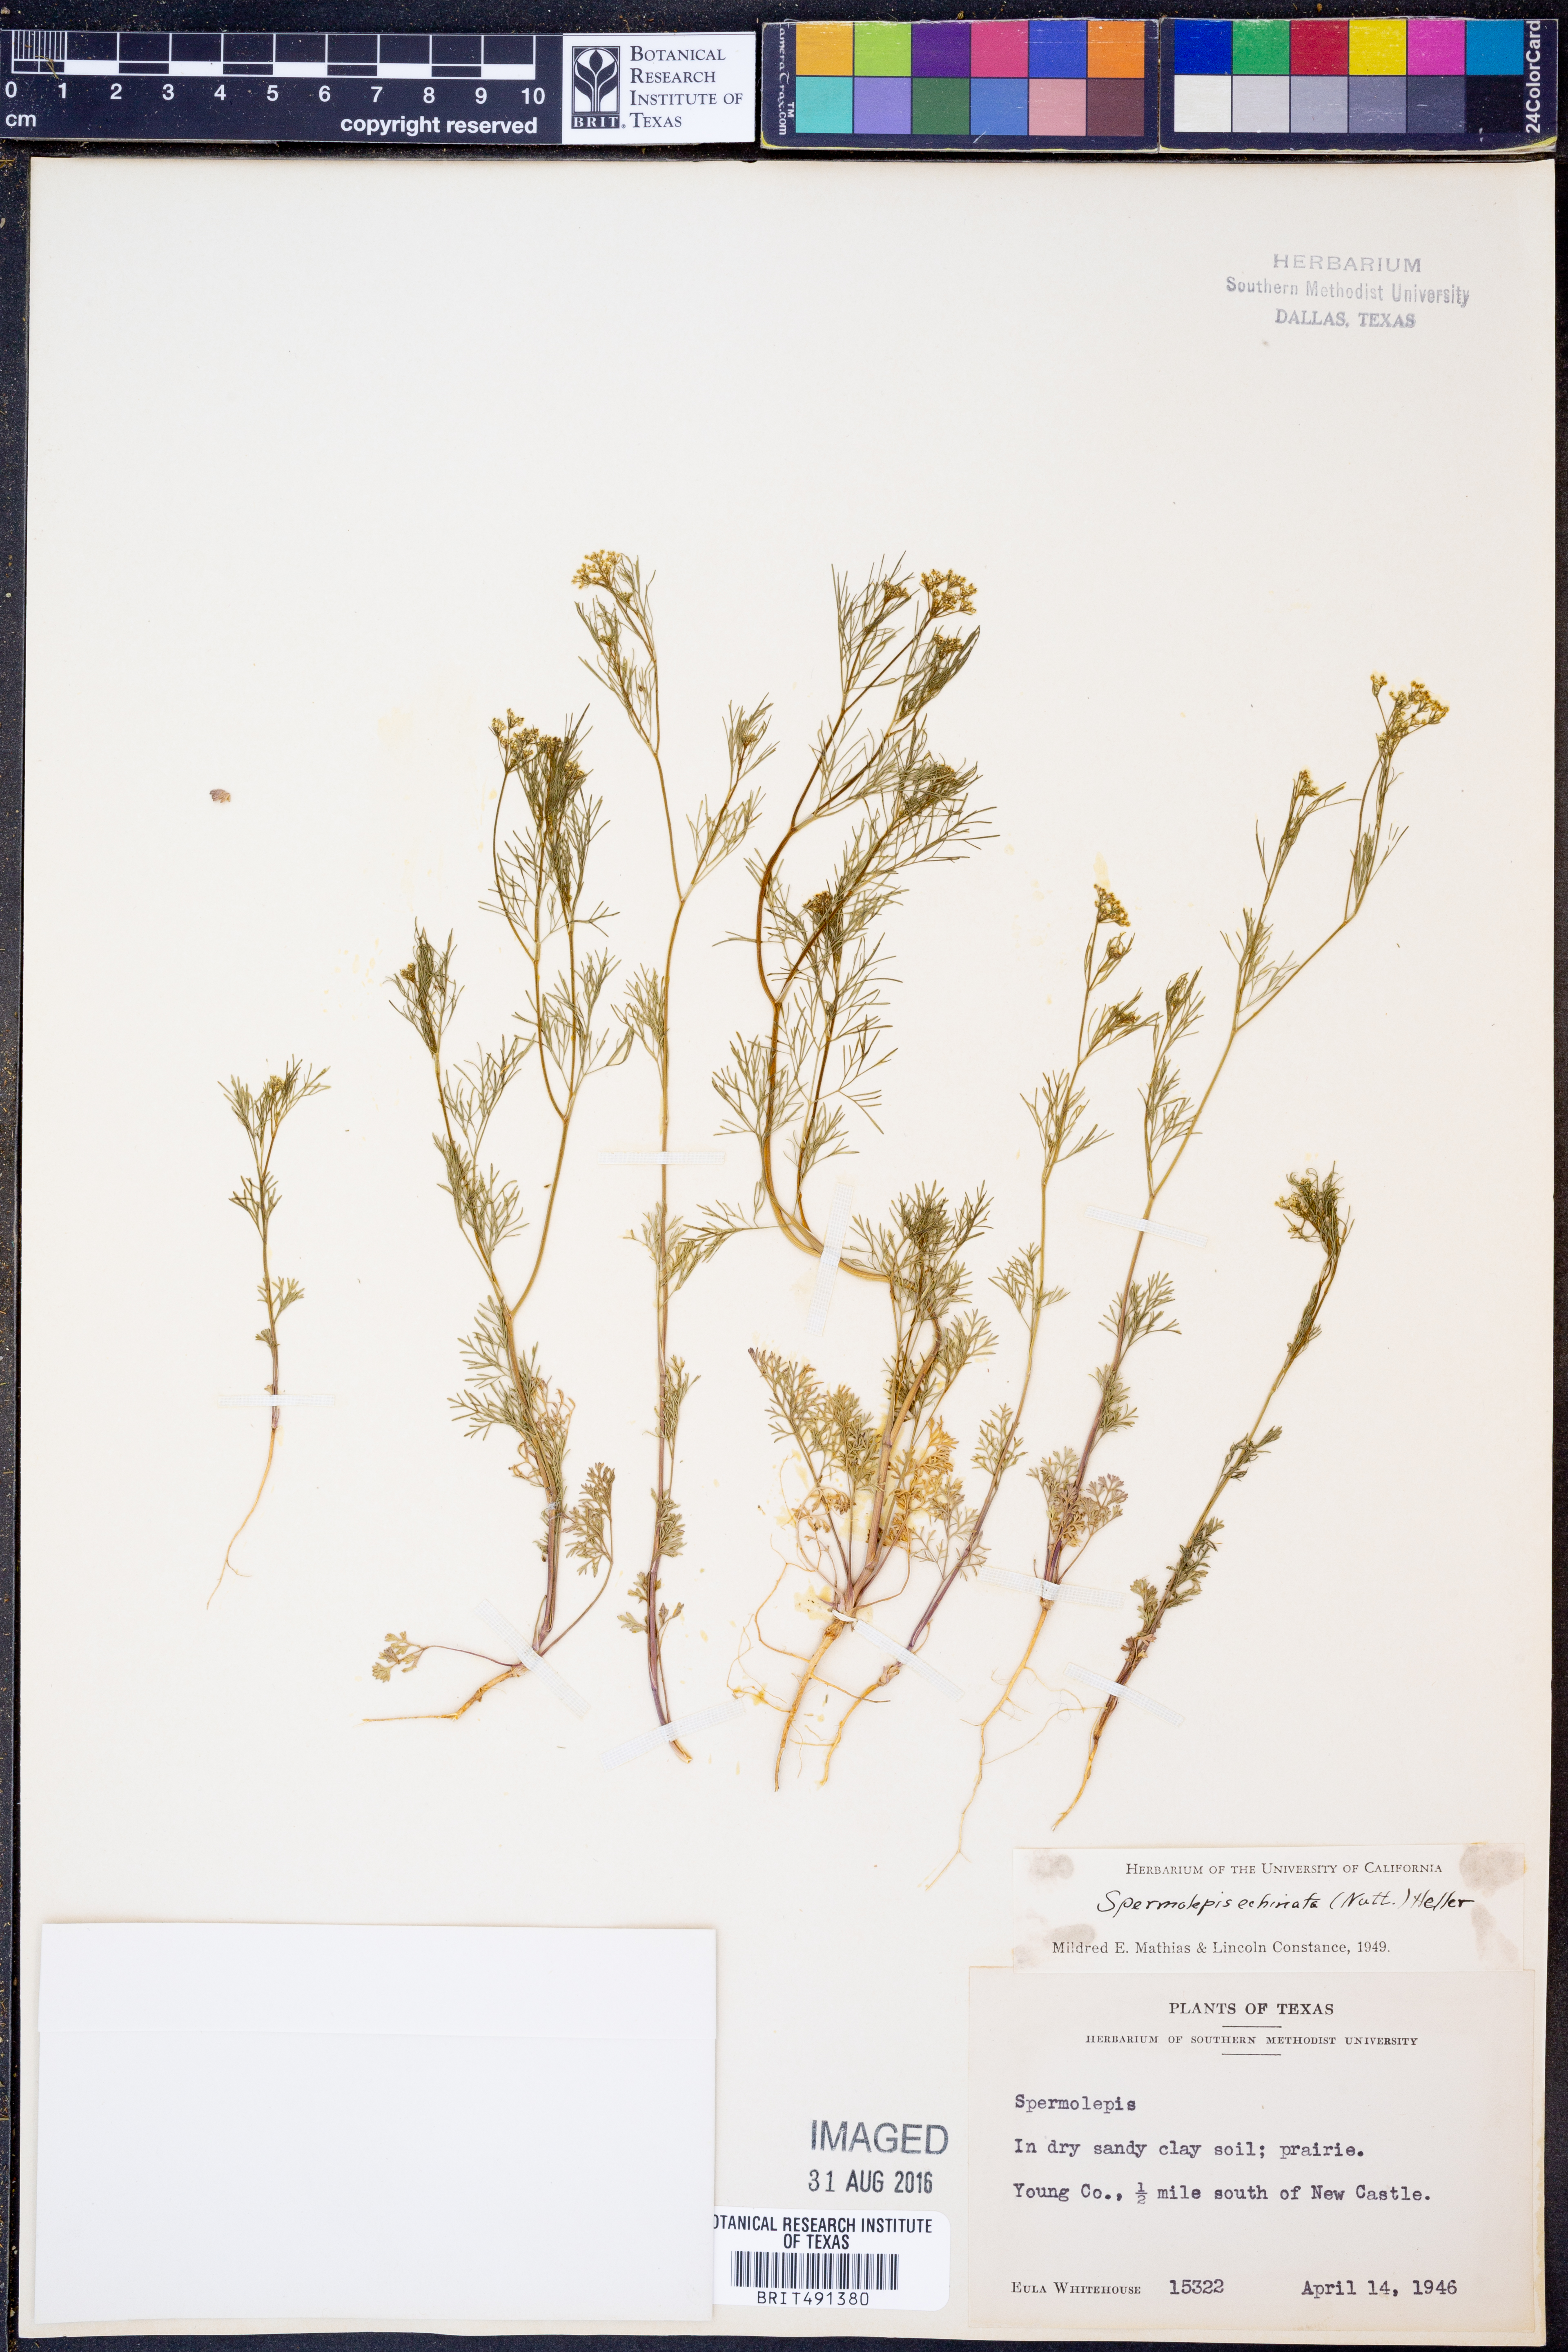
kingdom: Plantae
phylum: Tracheophyta
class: Magnoliopsida
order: Apiales
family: Apiaceae
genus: Spermolepis
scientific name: Spermolepis echinata
